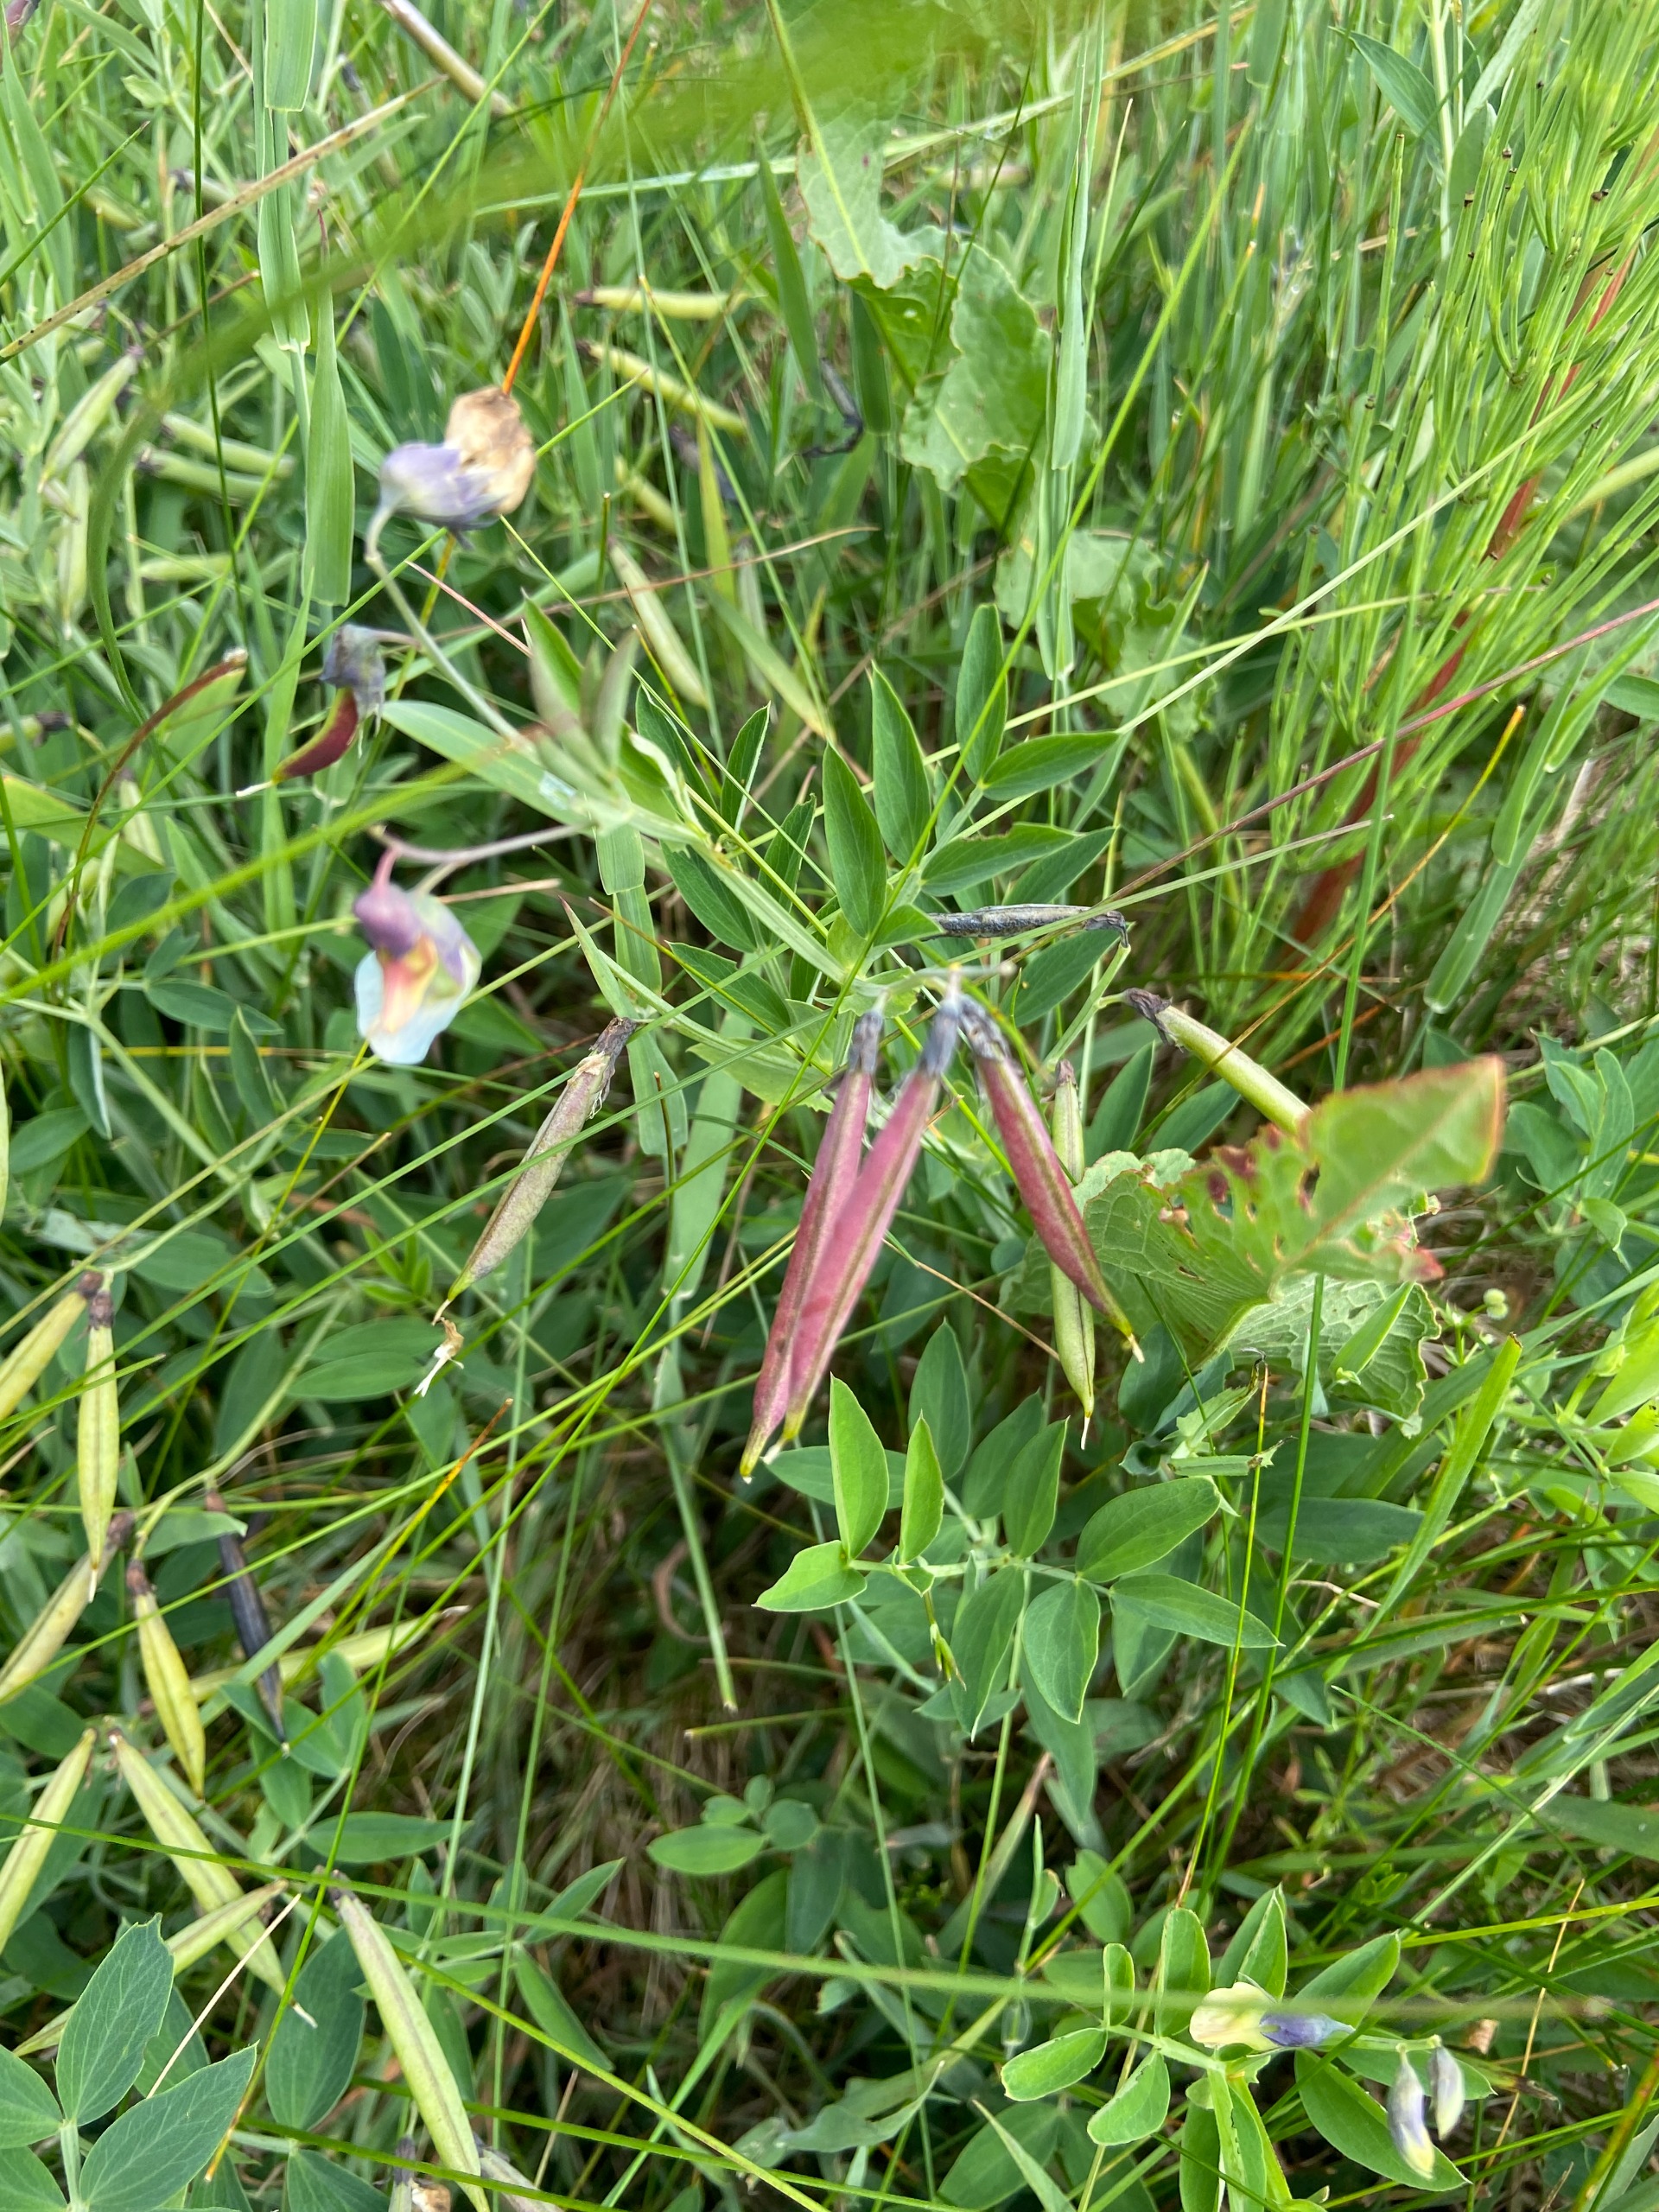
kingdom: Plantae
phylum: Tracheophyta
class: Magnoliopsida
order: Fabales
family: Fabaceae
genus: Lathyrus
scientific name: Lathyrus linifolius
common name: Krat-fladbælg
